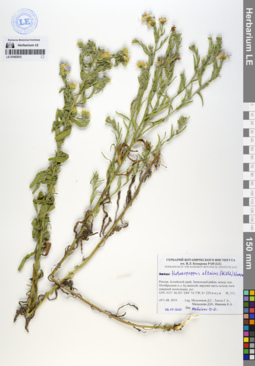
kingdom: Plantae
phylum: Tracheophyta
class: Magnoliopsida
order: Asterales
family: Asteraceae
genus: Heteropappus
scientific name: Heteropappus altaicus
